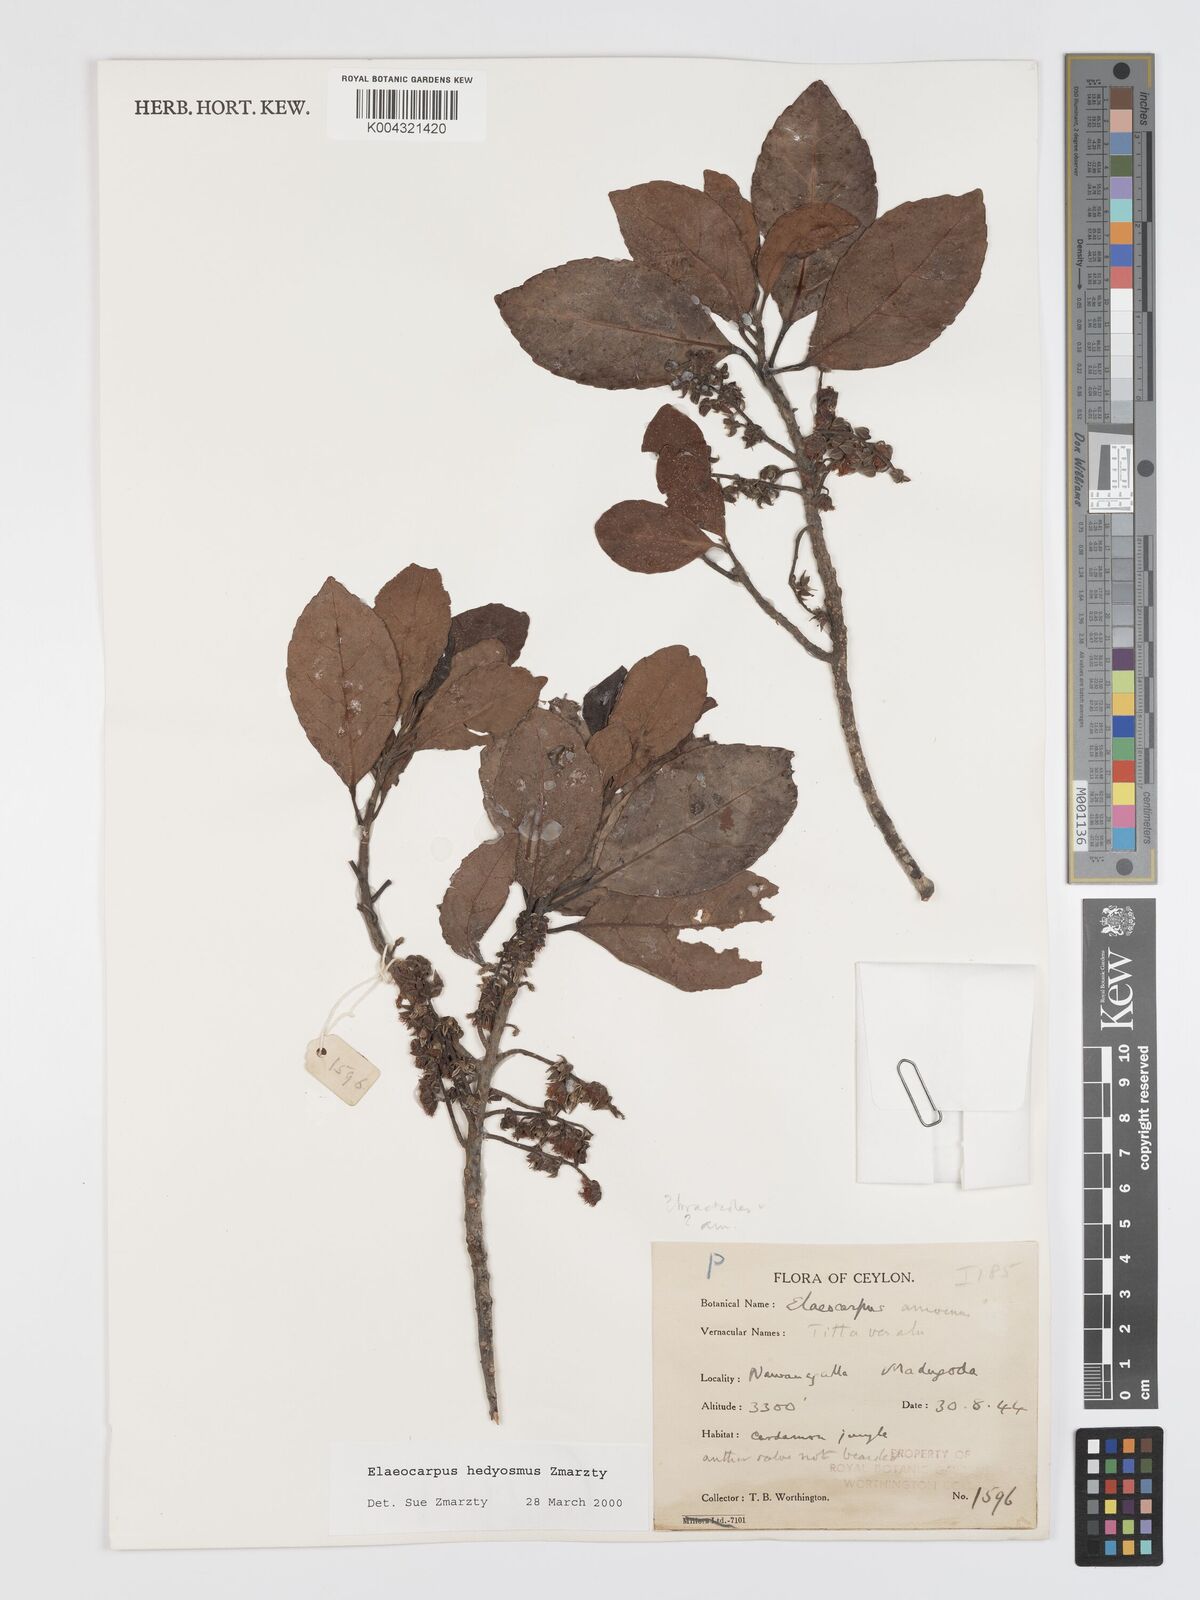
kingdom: Plantae
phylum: Tracheophyta
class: Magnoliopsida
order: Oxalidales
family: Elaeocarpaceae
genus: Elaeocarpus
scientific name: Elaeocarpus hedyosmus
